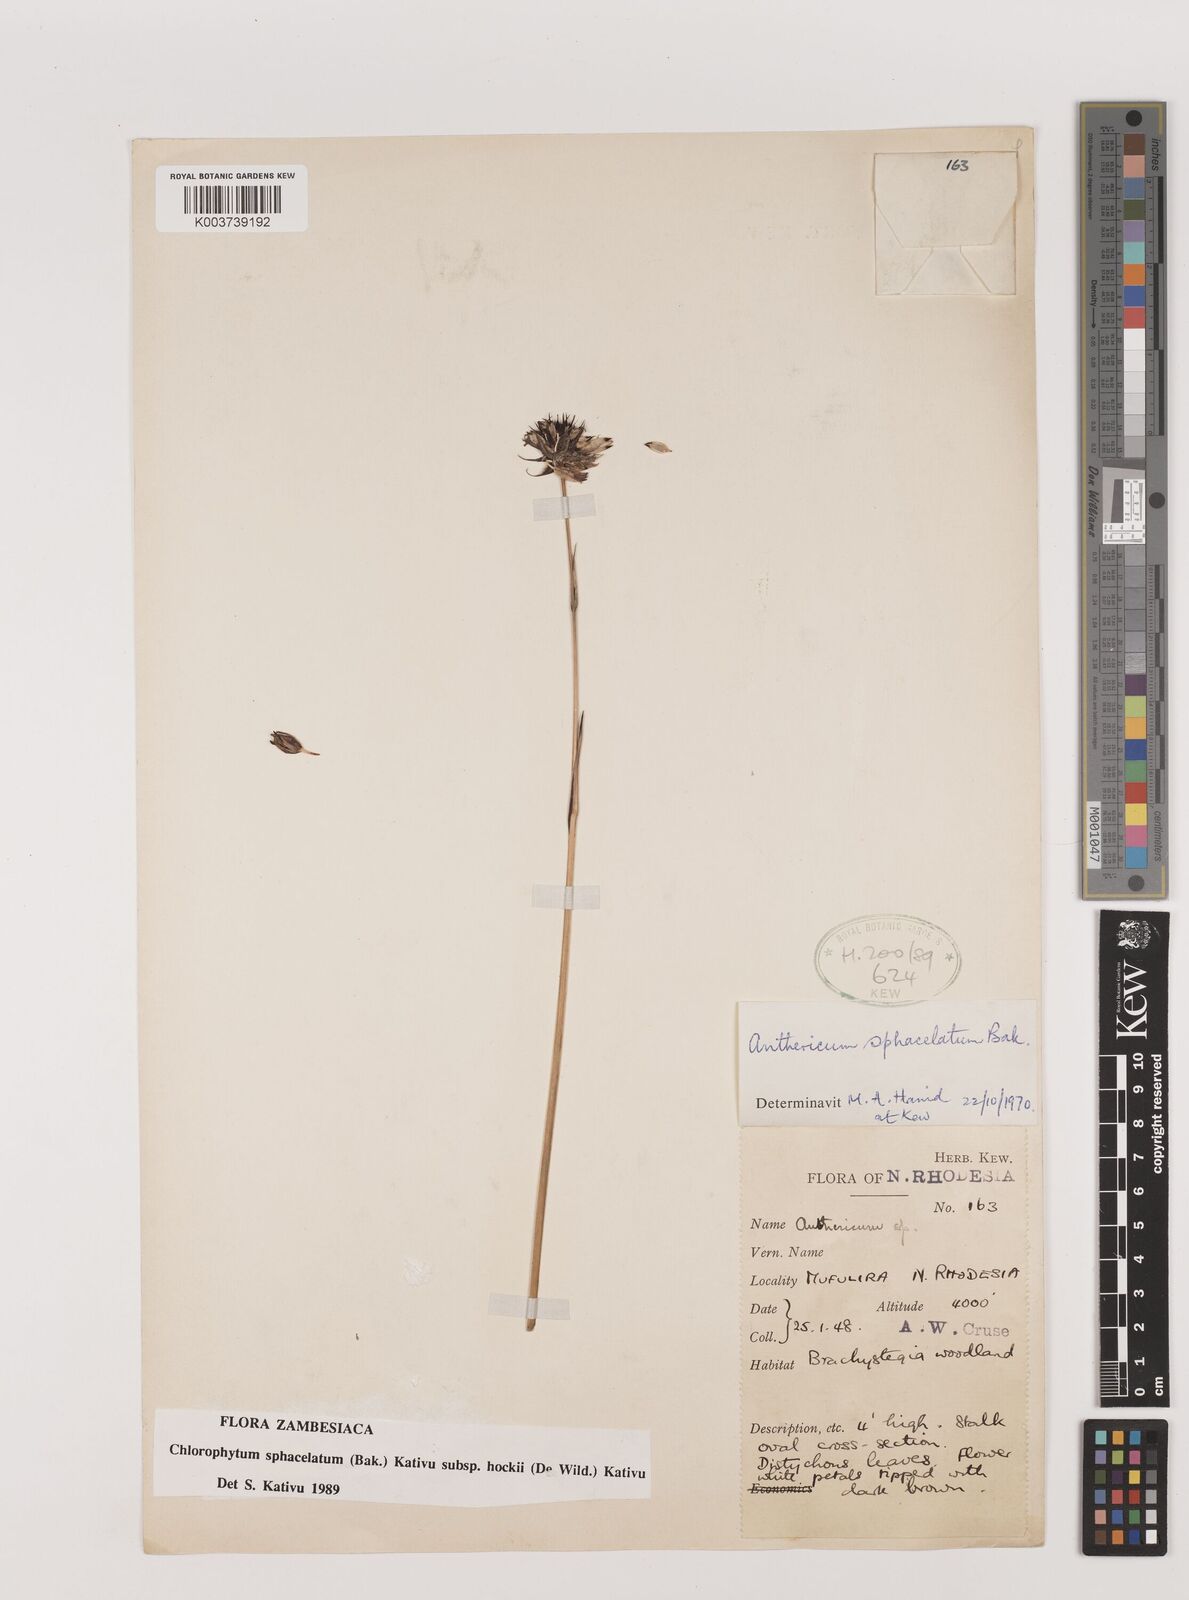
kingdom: Plantae
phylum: Tracheophyta
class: Liliopsida
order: Asparagales
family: Asparagaceae
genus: Chlorophytum
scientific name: Chlorophytum sphacelatum
